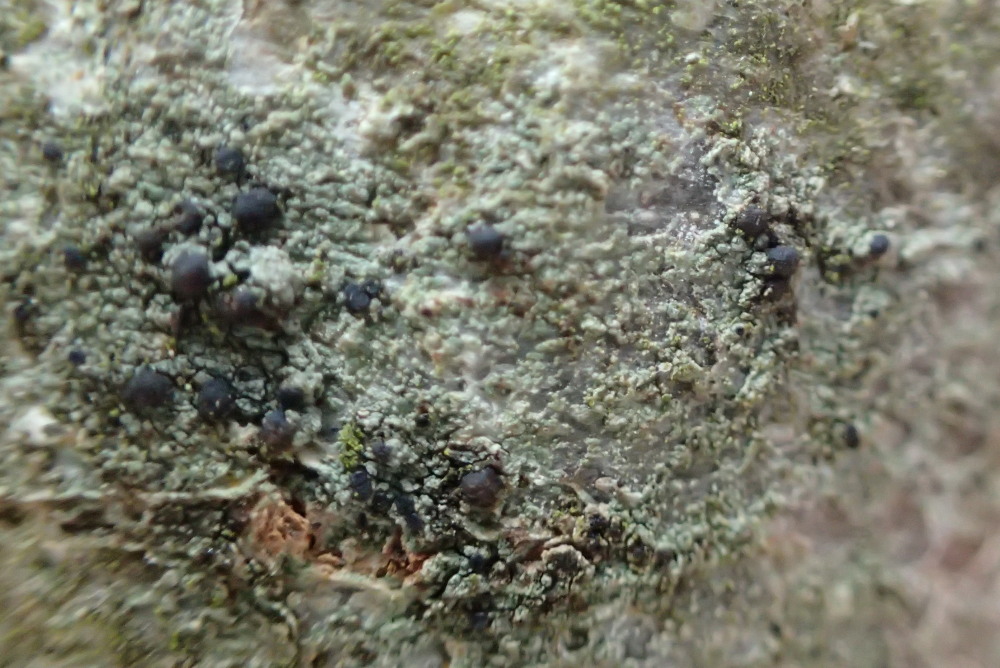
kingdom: Fungi
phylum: Ascomycota
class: Lecanoromycetes
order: Lecanorales
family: Lecanoraceae
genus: Lecidella
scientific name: Lecidella euphorea
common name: vortet skivelav
